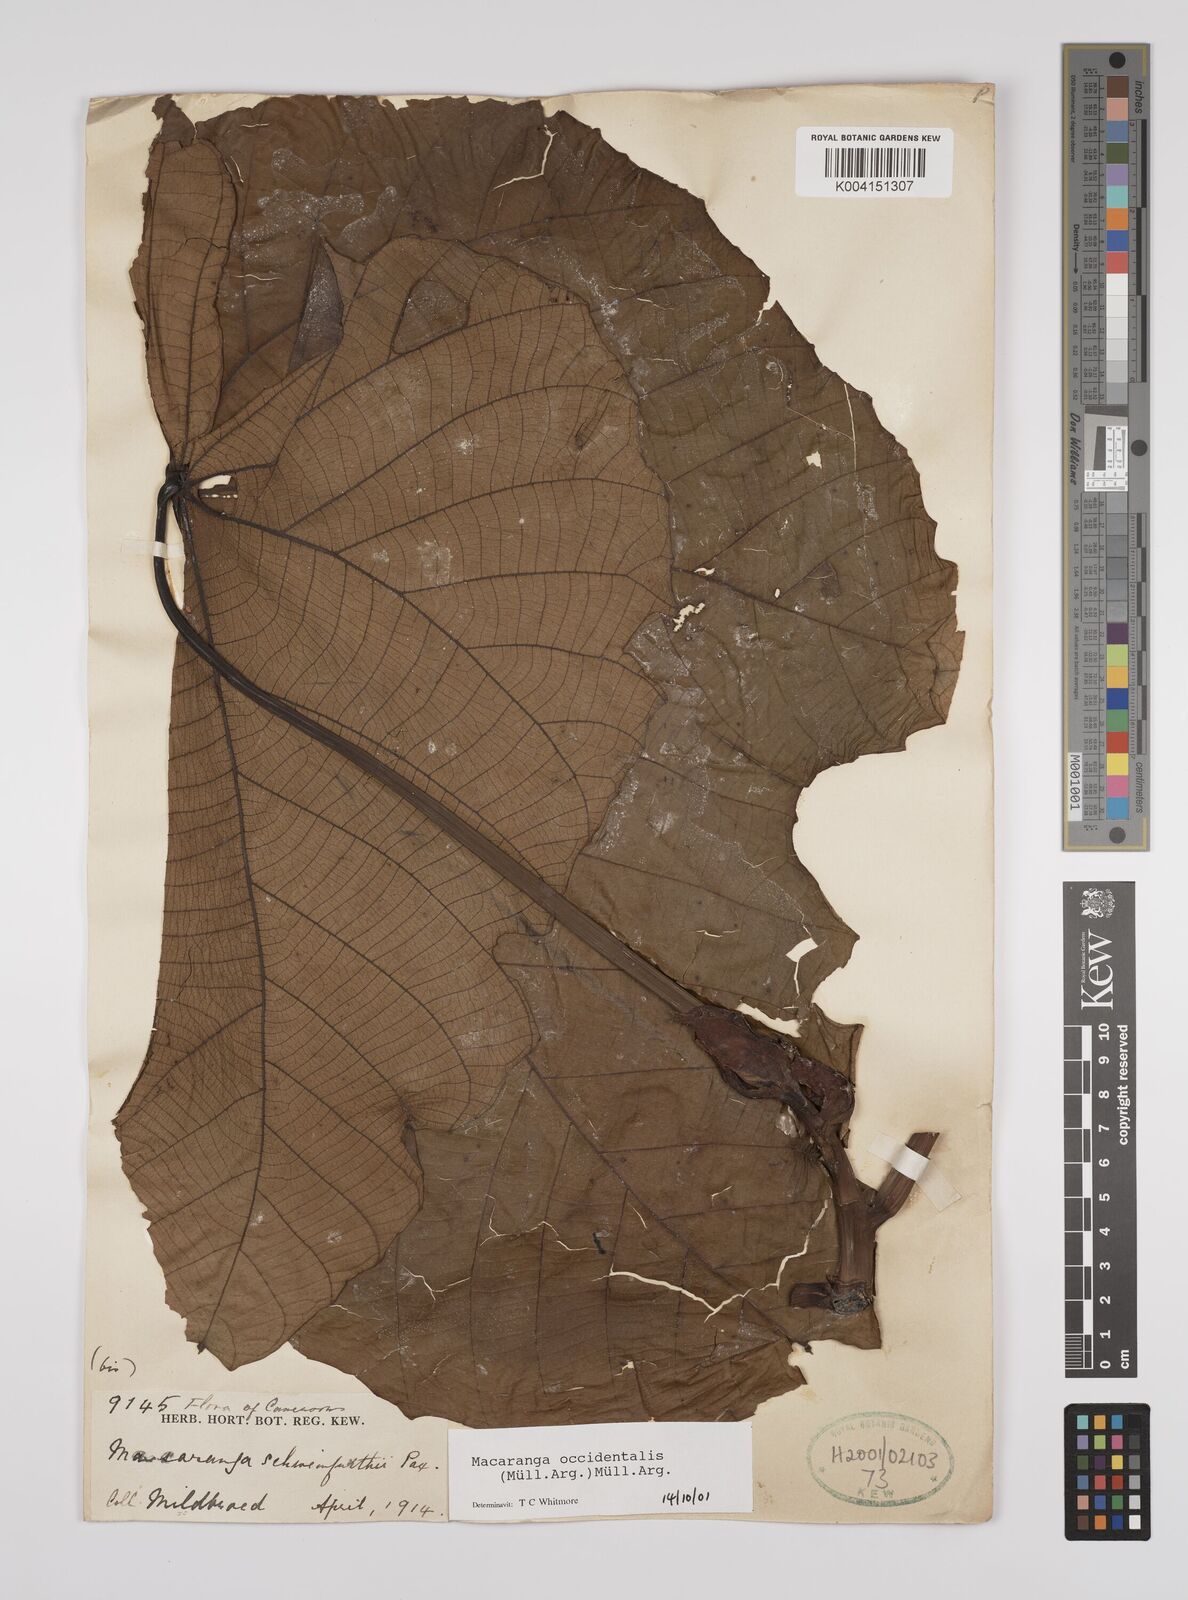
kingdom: Plantae
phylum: Tracheophyta
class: Magnoliopsida
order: Malpighiales
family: Euphorbiaceae
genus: Macaranga
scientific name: Macaranga occidentalis
